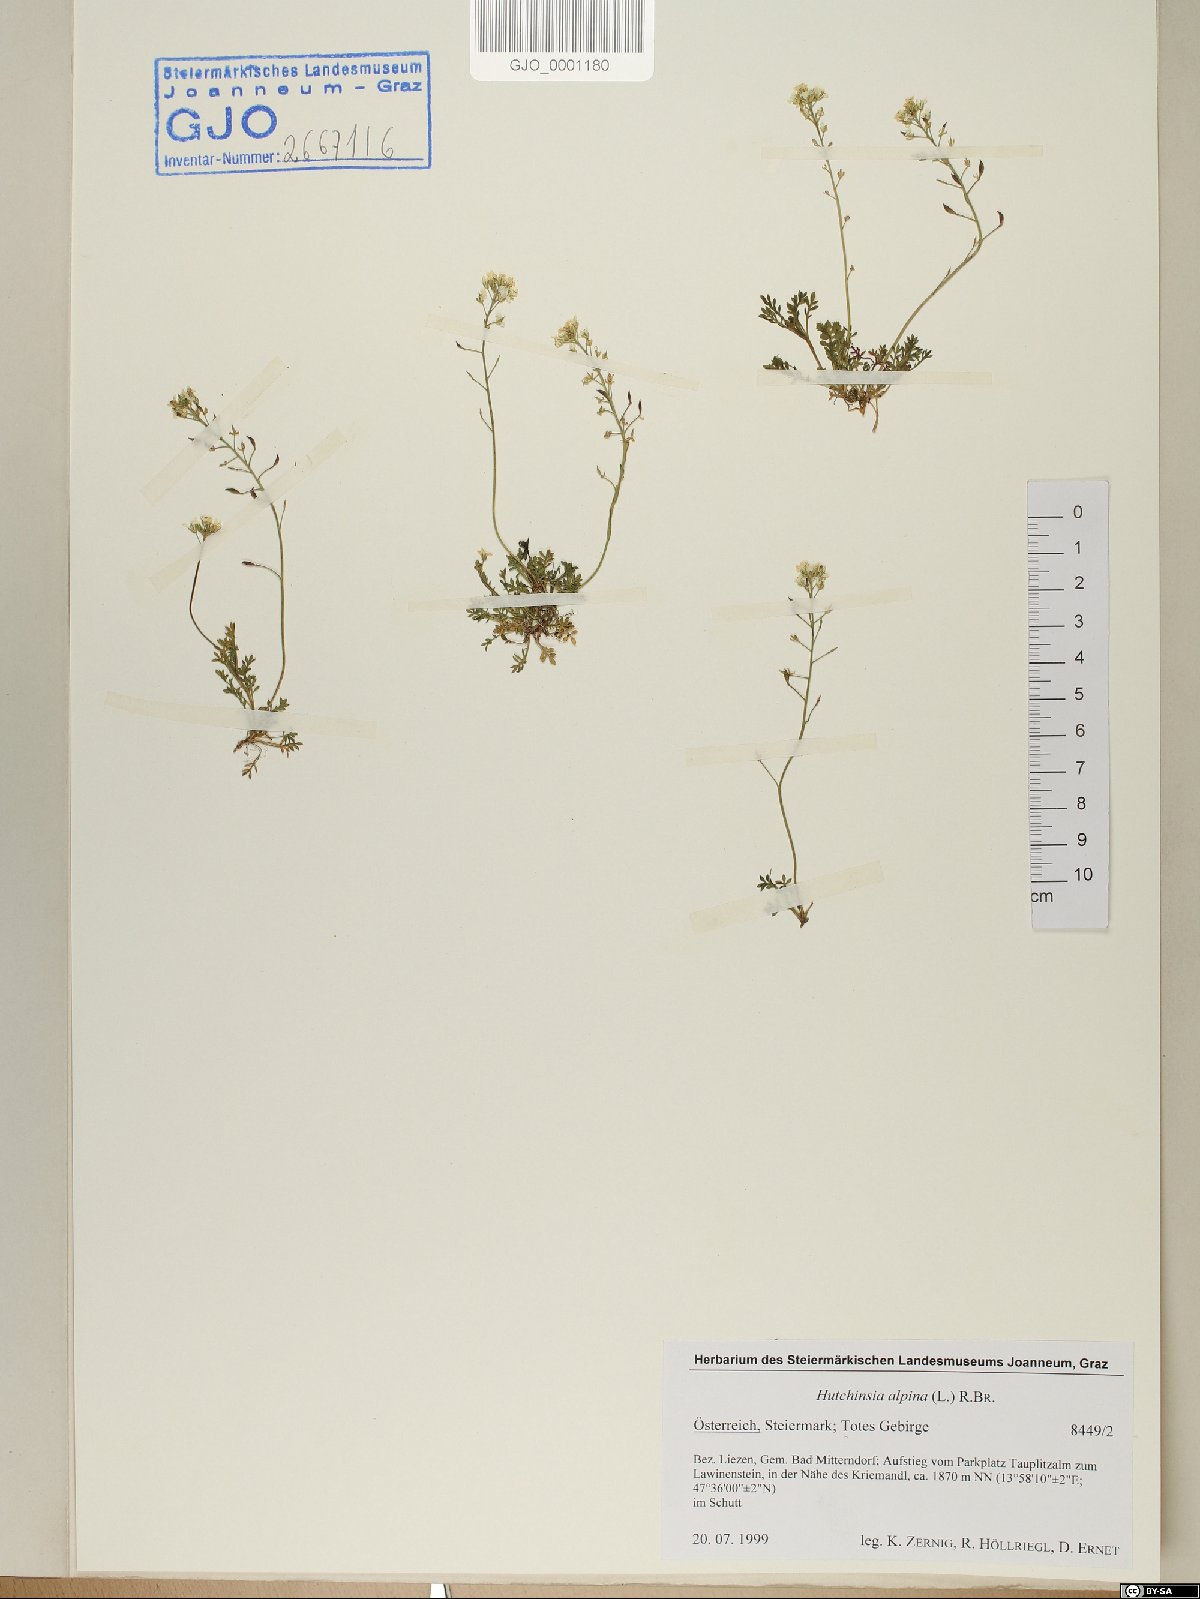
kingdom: Plantae
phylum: Tracheophyta
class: Magnoliopsida
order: Brassicales
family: Brassicaceae
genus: Hornungia
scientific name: Hornungia alpina
